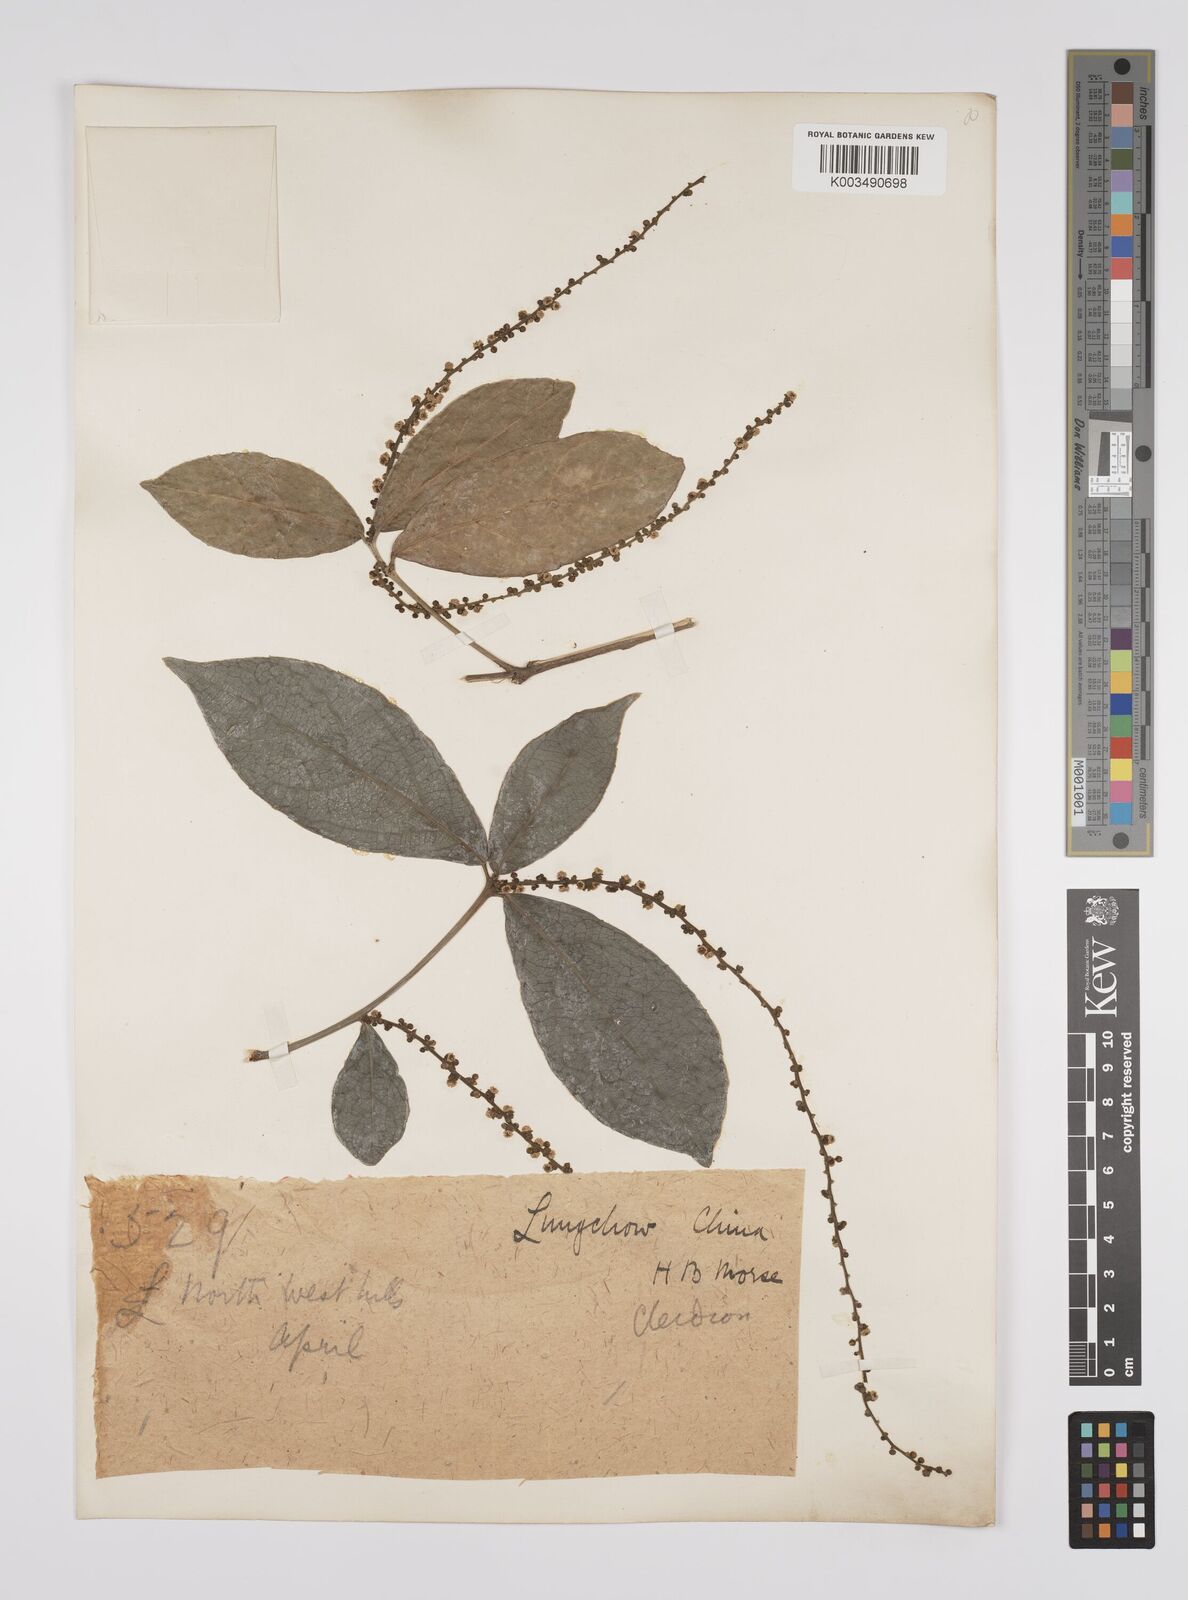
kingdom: Plantae
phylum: Tracheophyta
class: Magnoliopsida
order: Malpighiales
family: Euphorbiaceae
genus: Cleidion
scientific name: Cleidion brevipetiolatum
